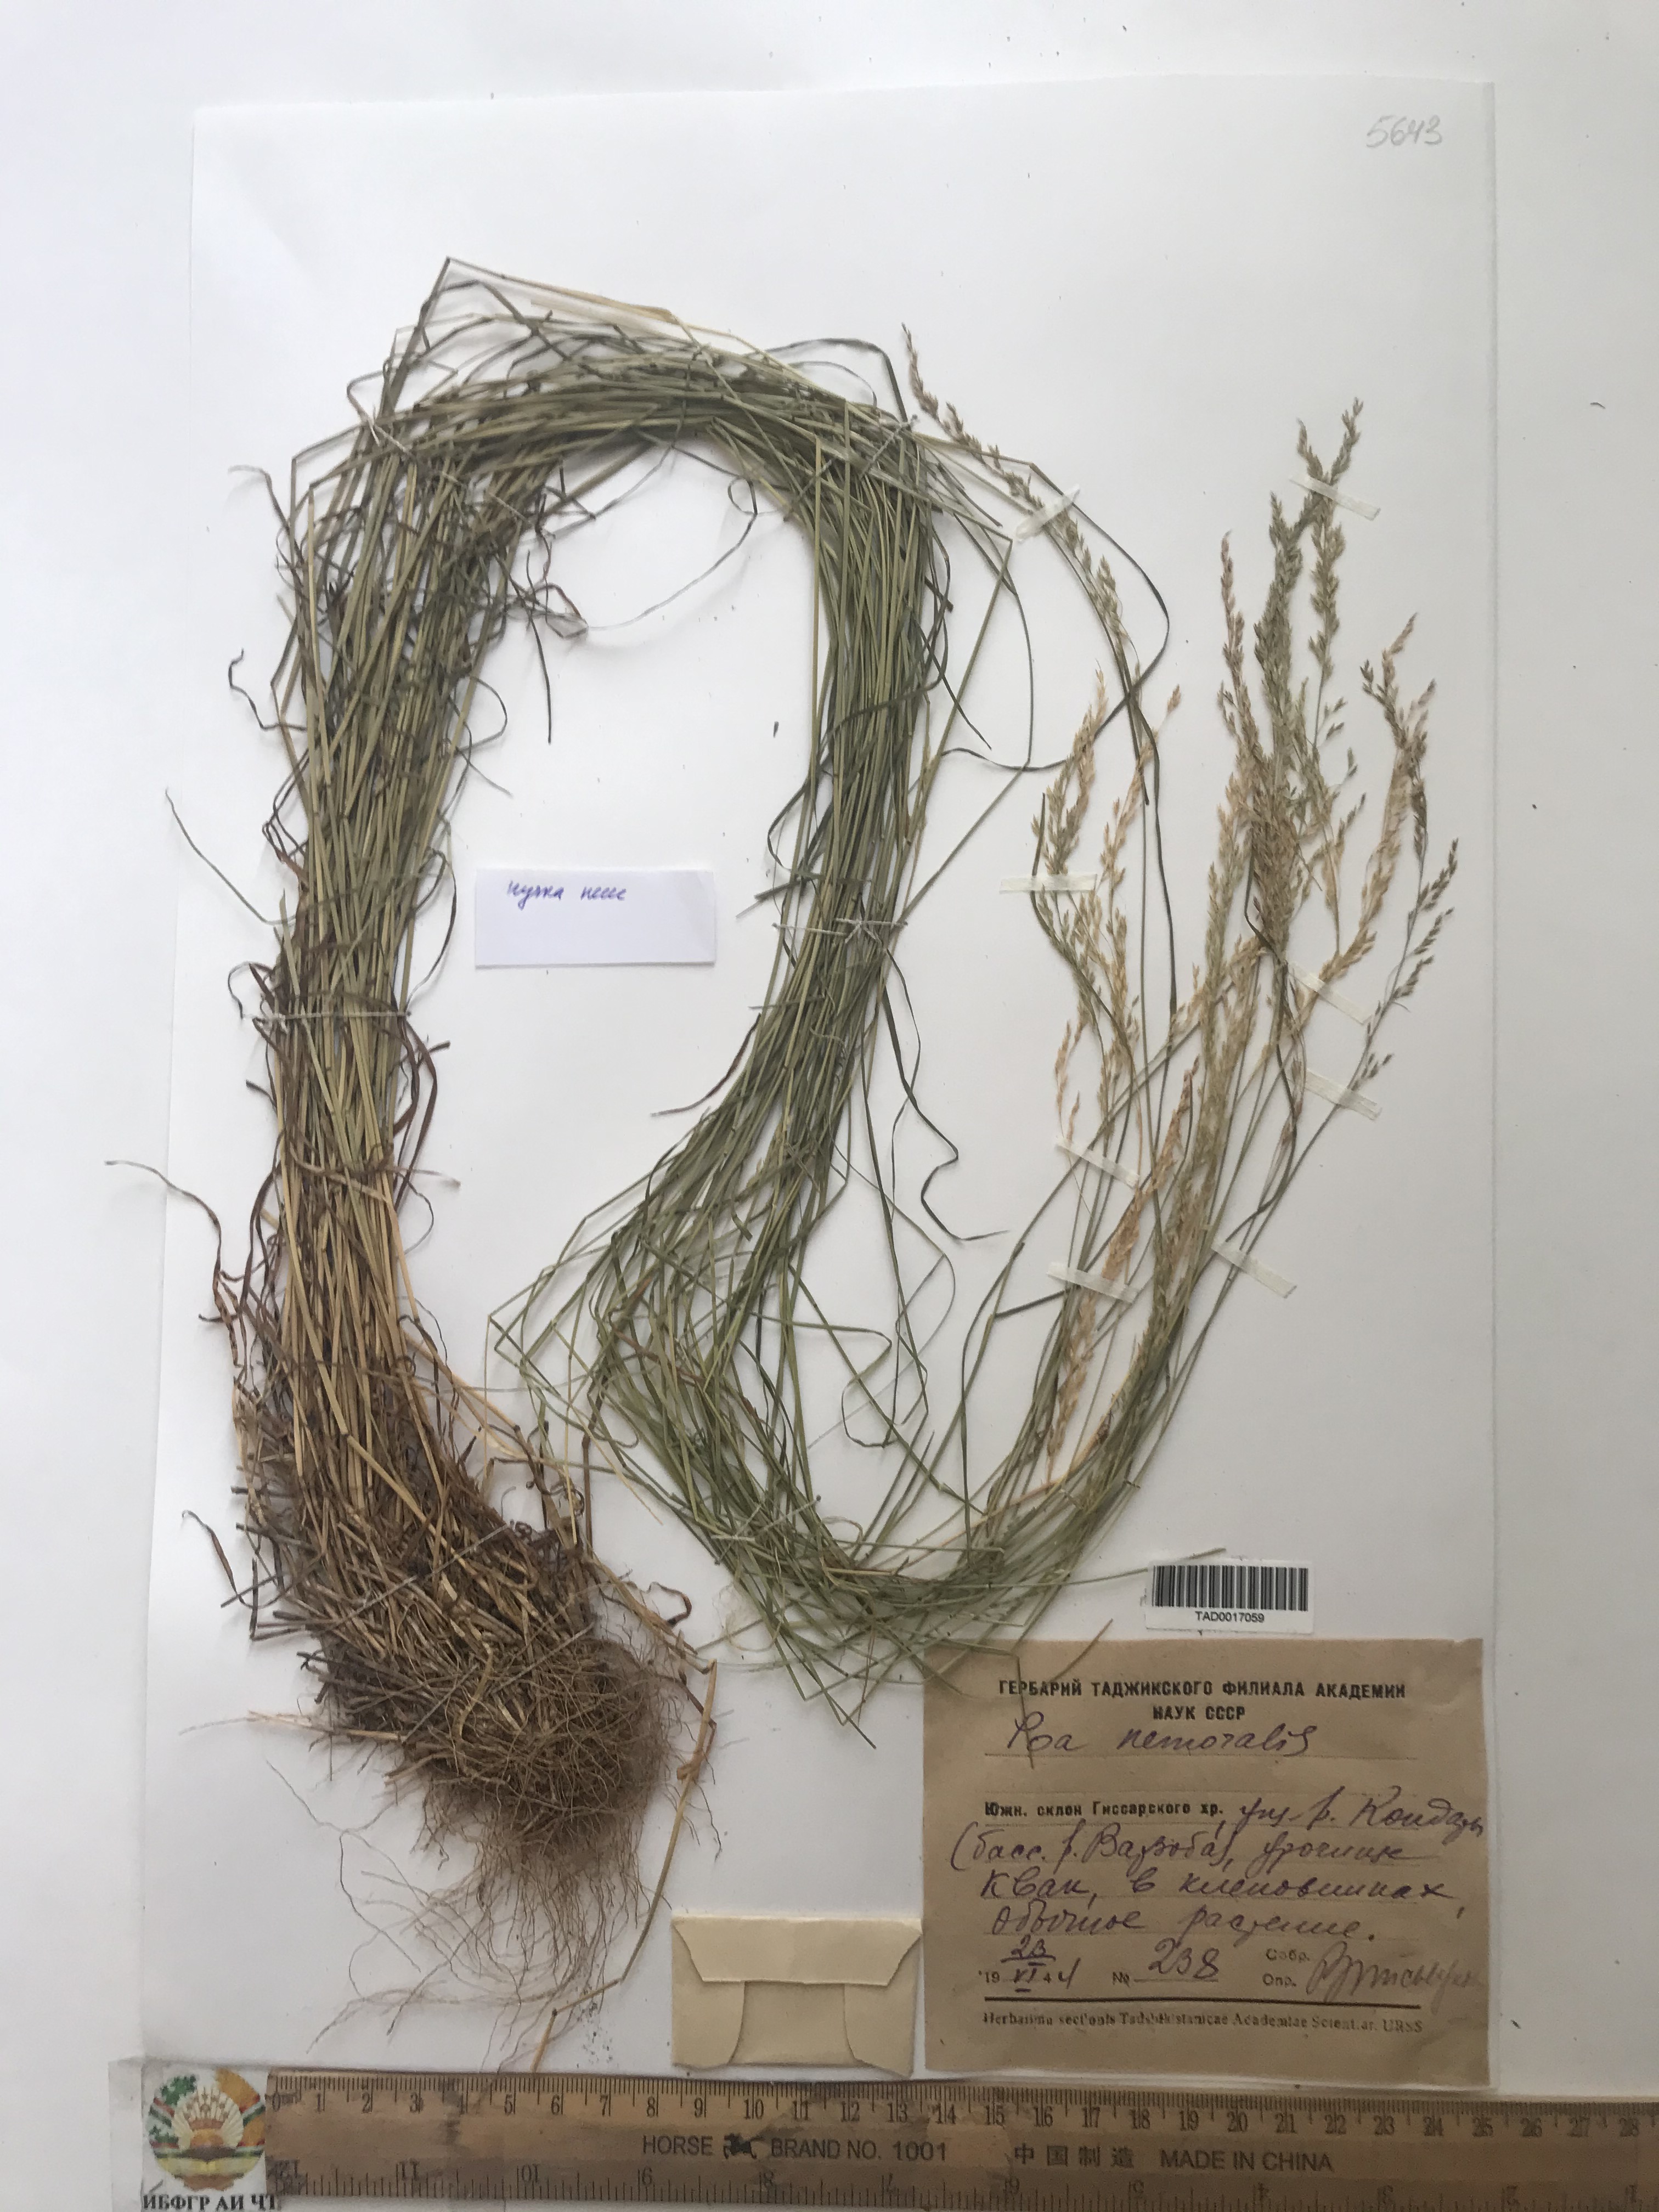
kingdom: Plantae
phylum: Tracheophyta
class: Liliopsida
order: Poales
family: Poaceae
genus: Poa
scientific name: Poa nemoralis
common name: Wood bluegrass
